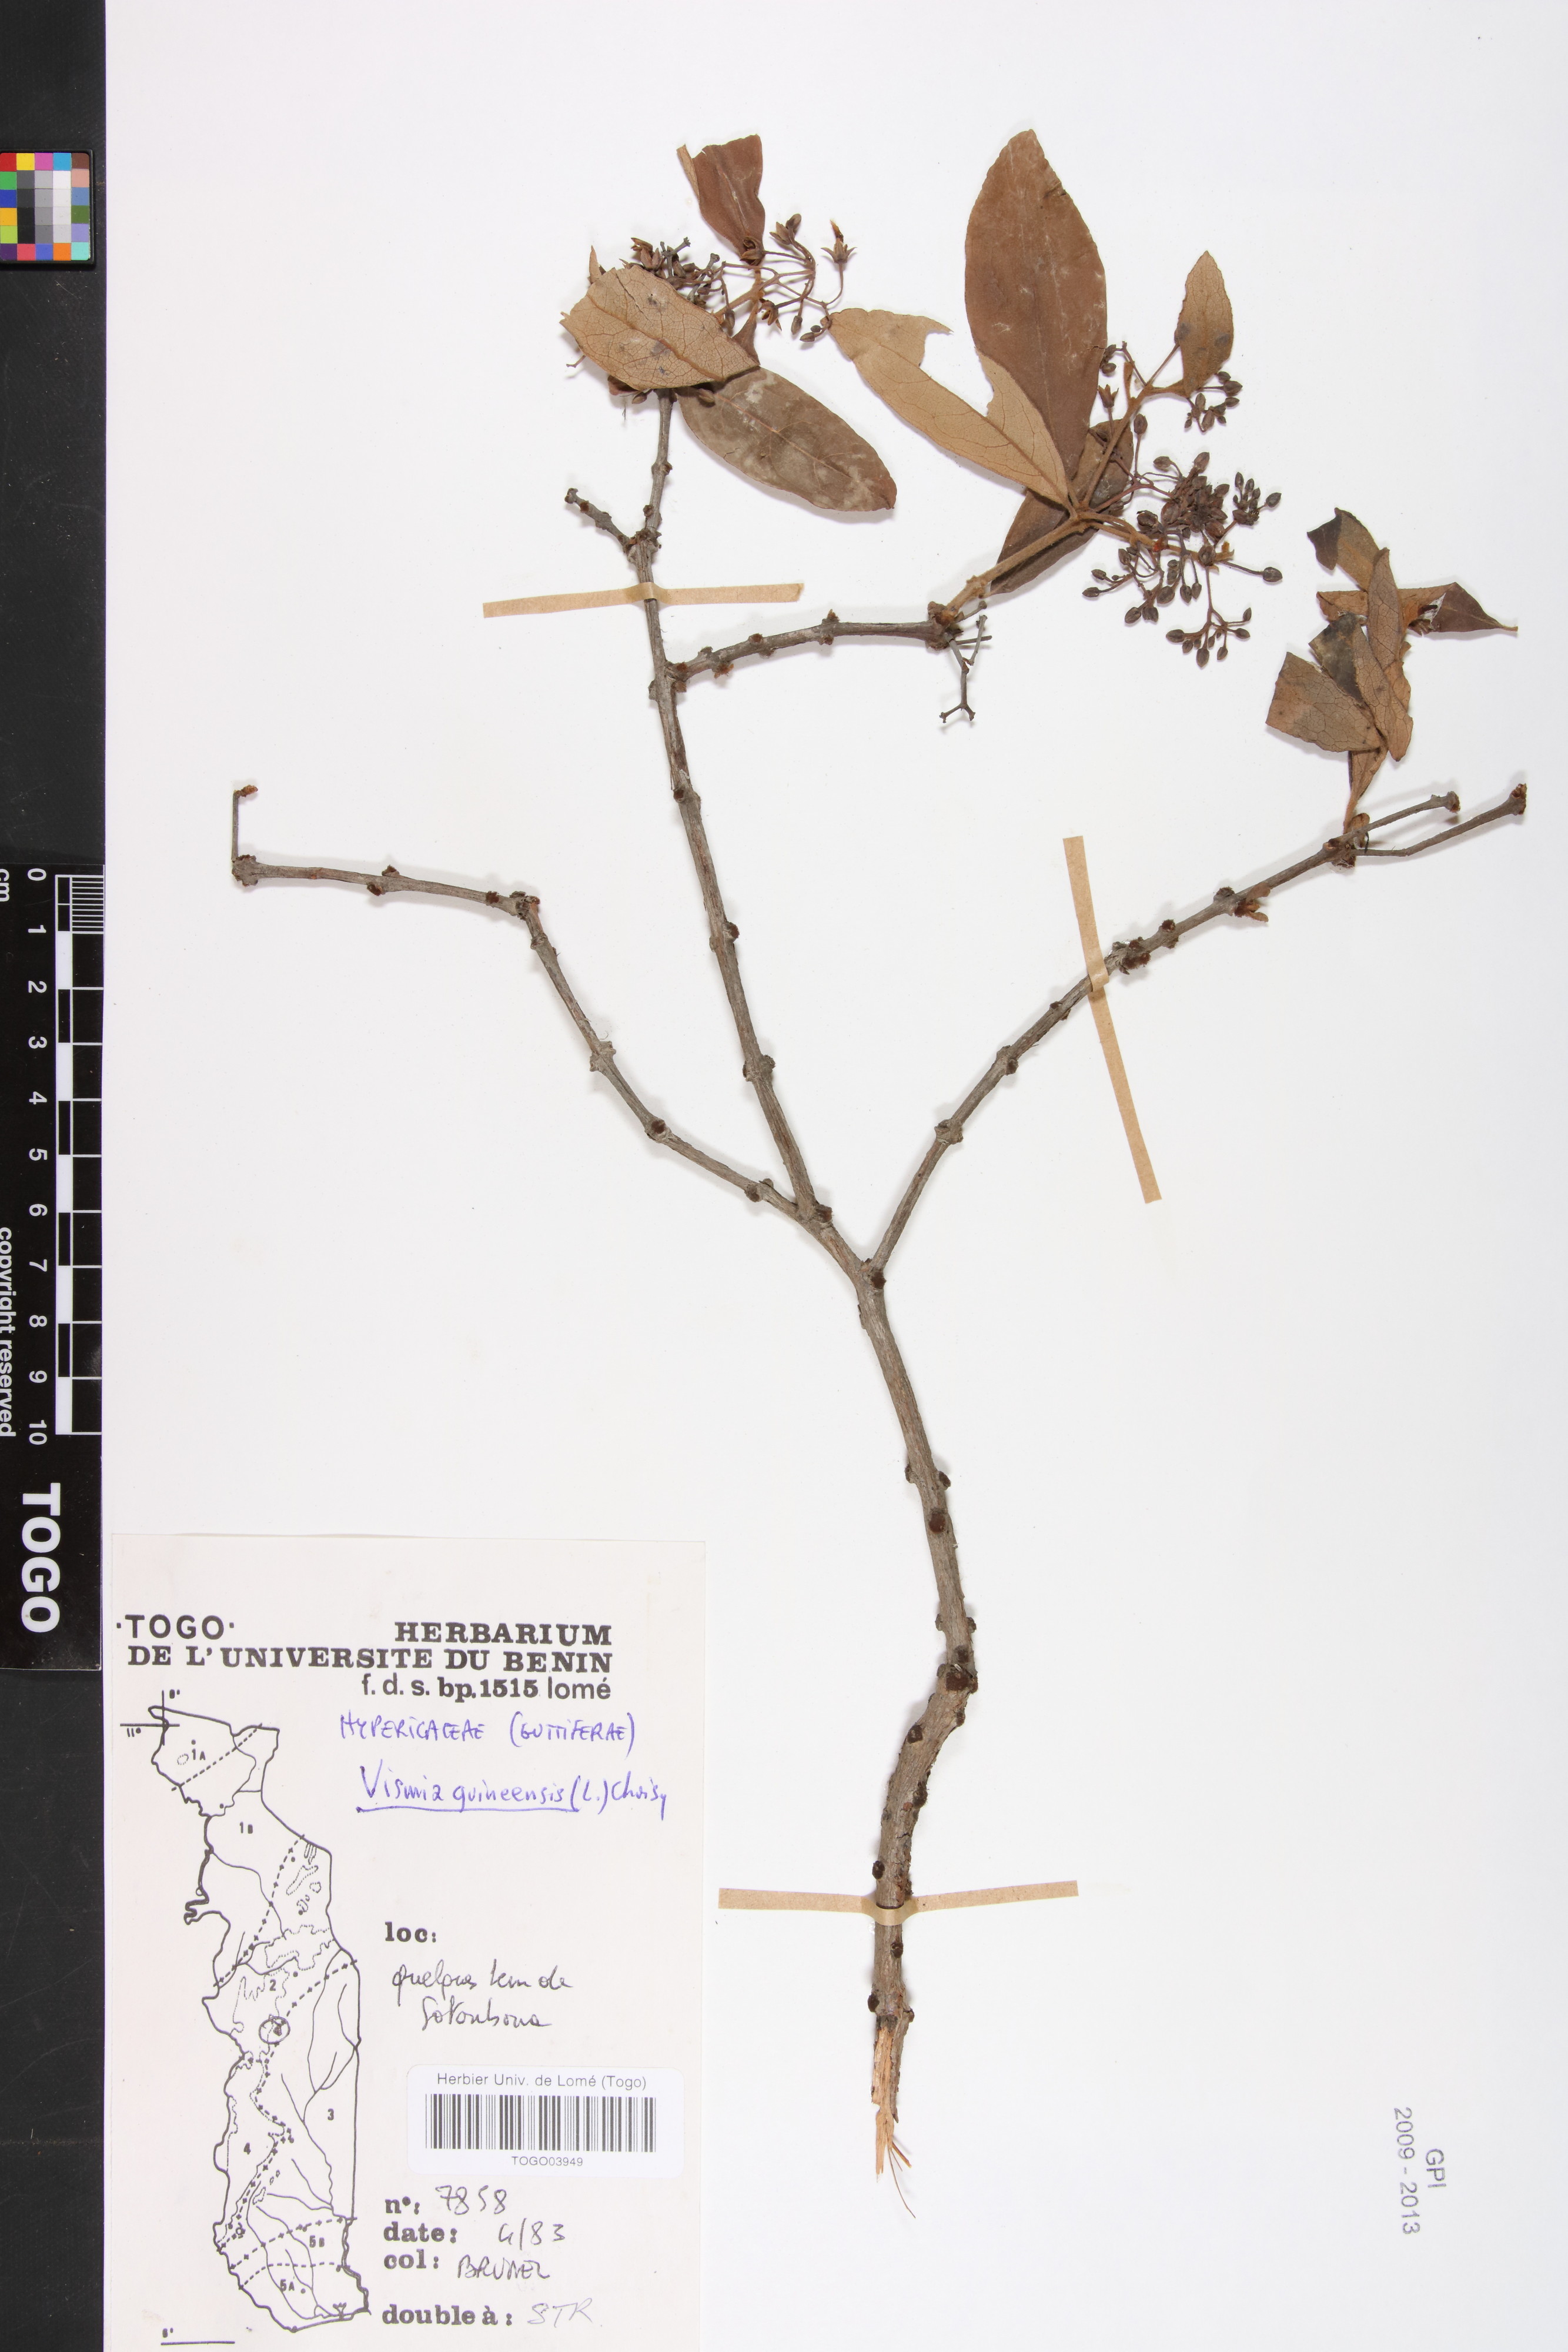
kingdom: Plantae
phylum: Tracheophyta
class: Magnoliopsida
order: Malpighiales
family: Hypericaceae
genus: Psorospermum
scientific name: Psorospermum guineense
